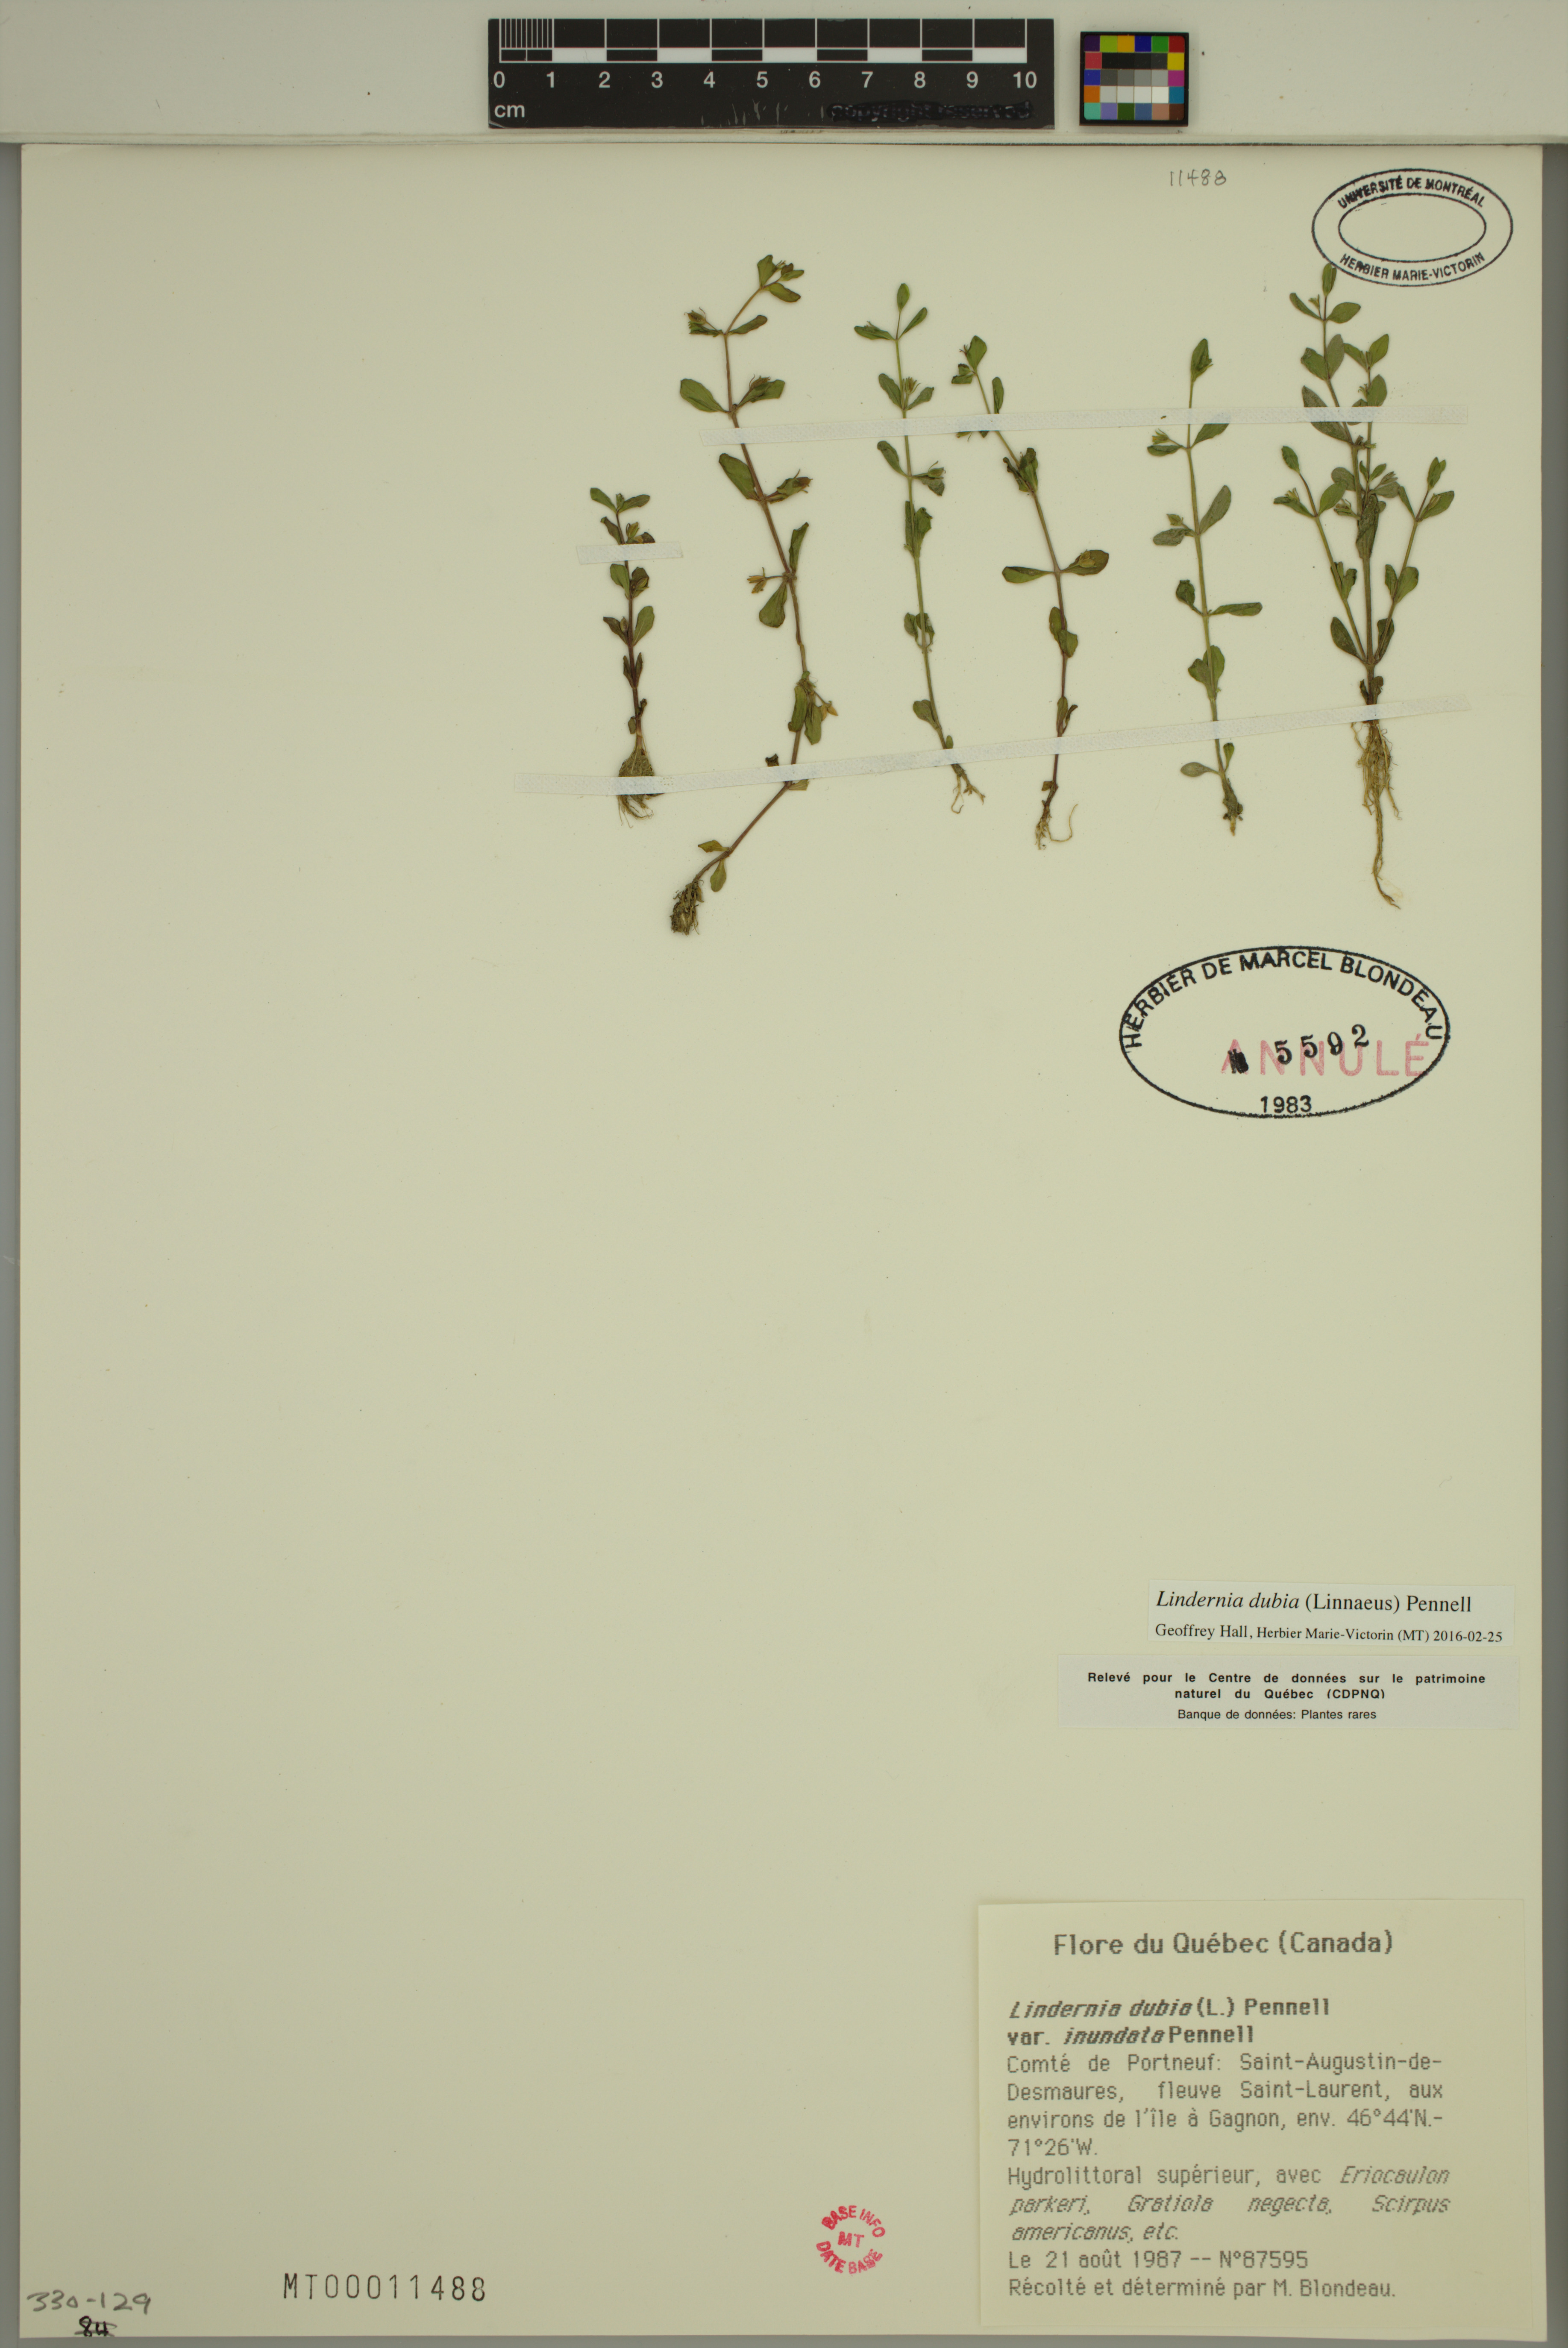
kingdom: Plantae
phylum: Tracheophyta
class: Magnoliopsida
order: Lamiales
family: Linderniaceae
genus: Lindernia
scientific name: Lindernia dubia
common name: Annual false pimpernel
